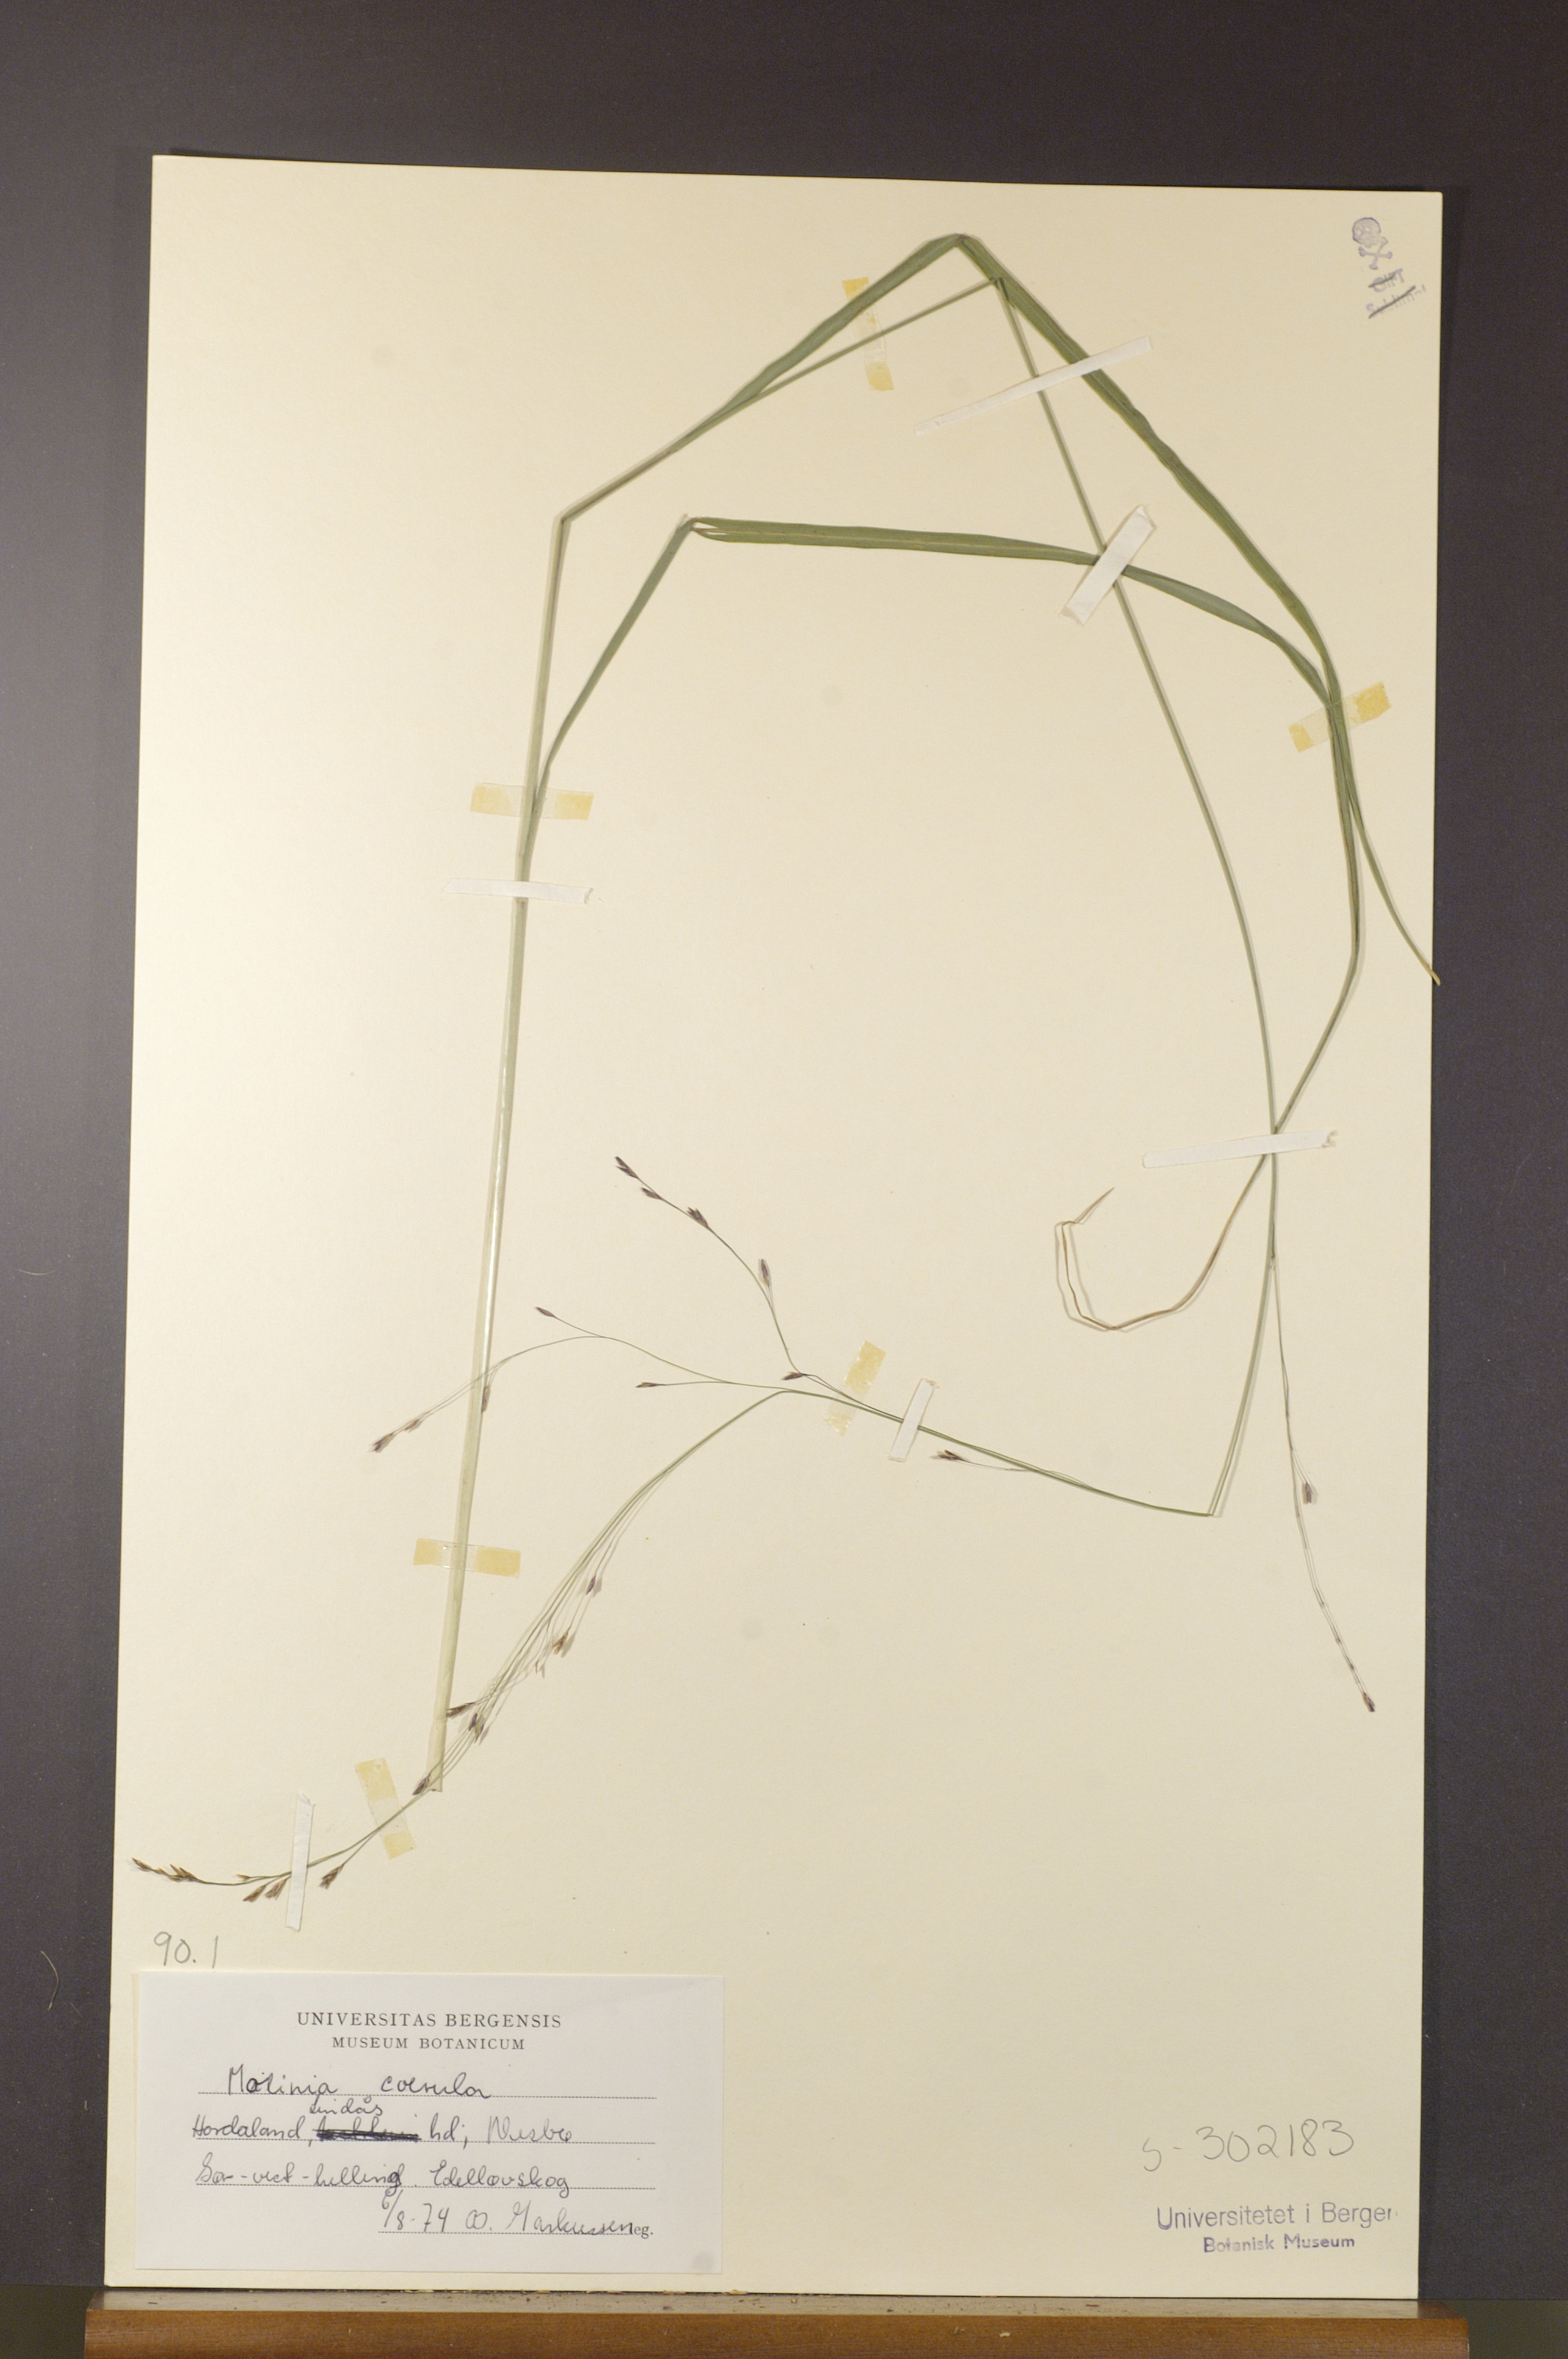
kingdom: Plantae
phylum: Tracheophyta
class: Liliopsida
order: Poales
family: Poaceae
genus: Molinia
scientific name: Molinia caerulea
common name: Purple moor-grass
